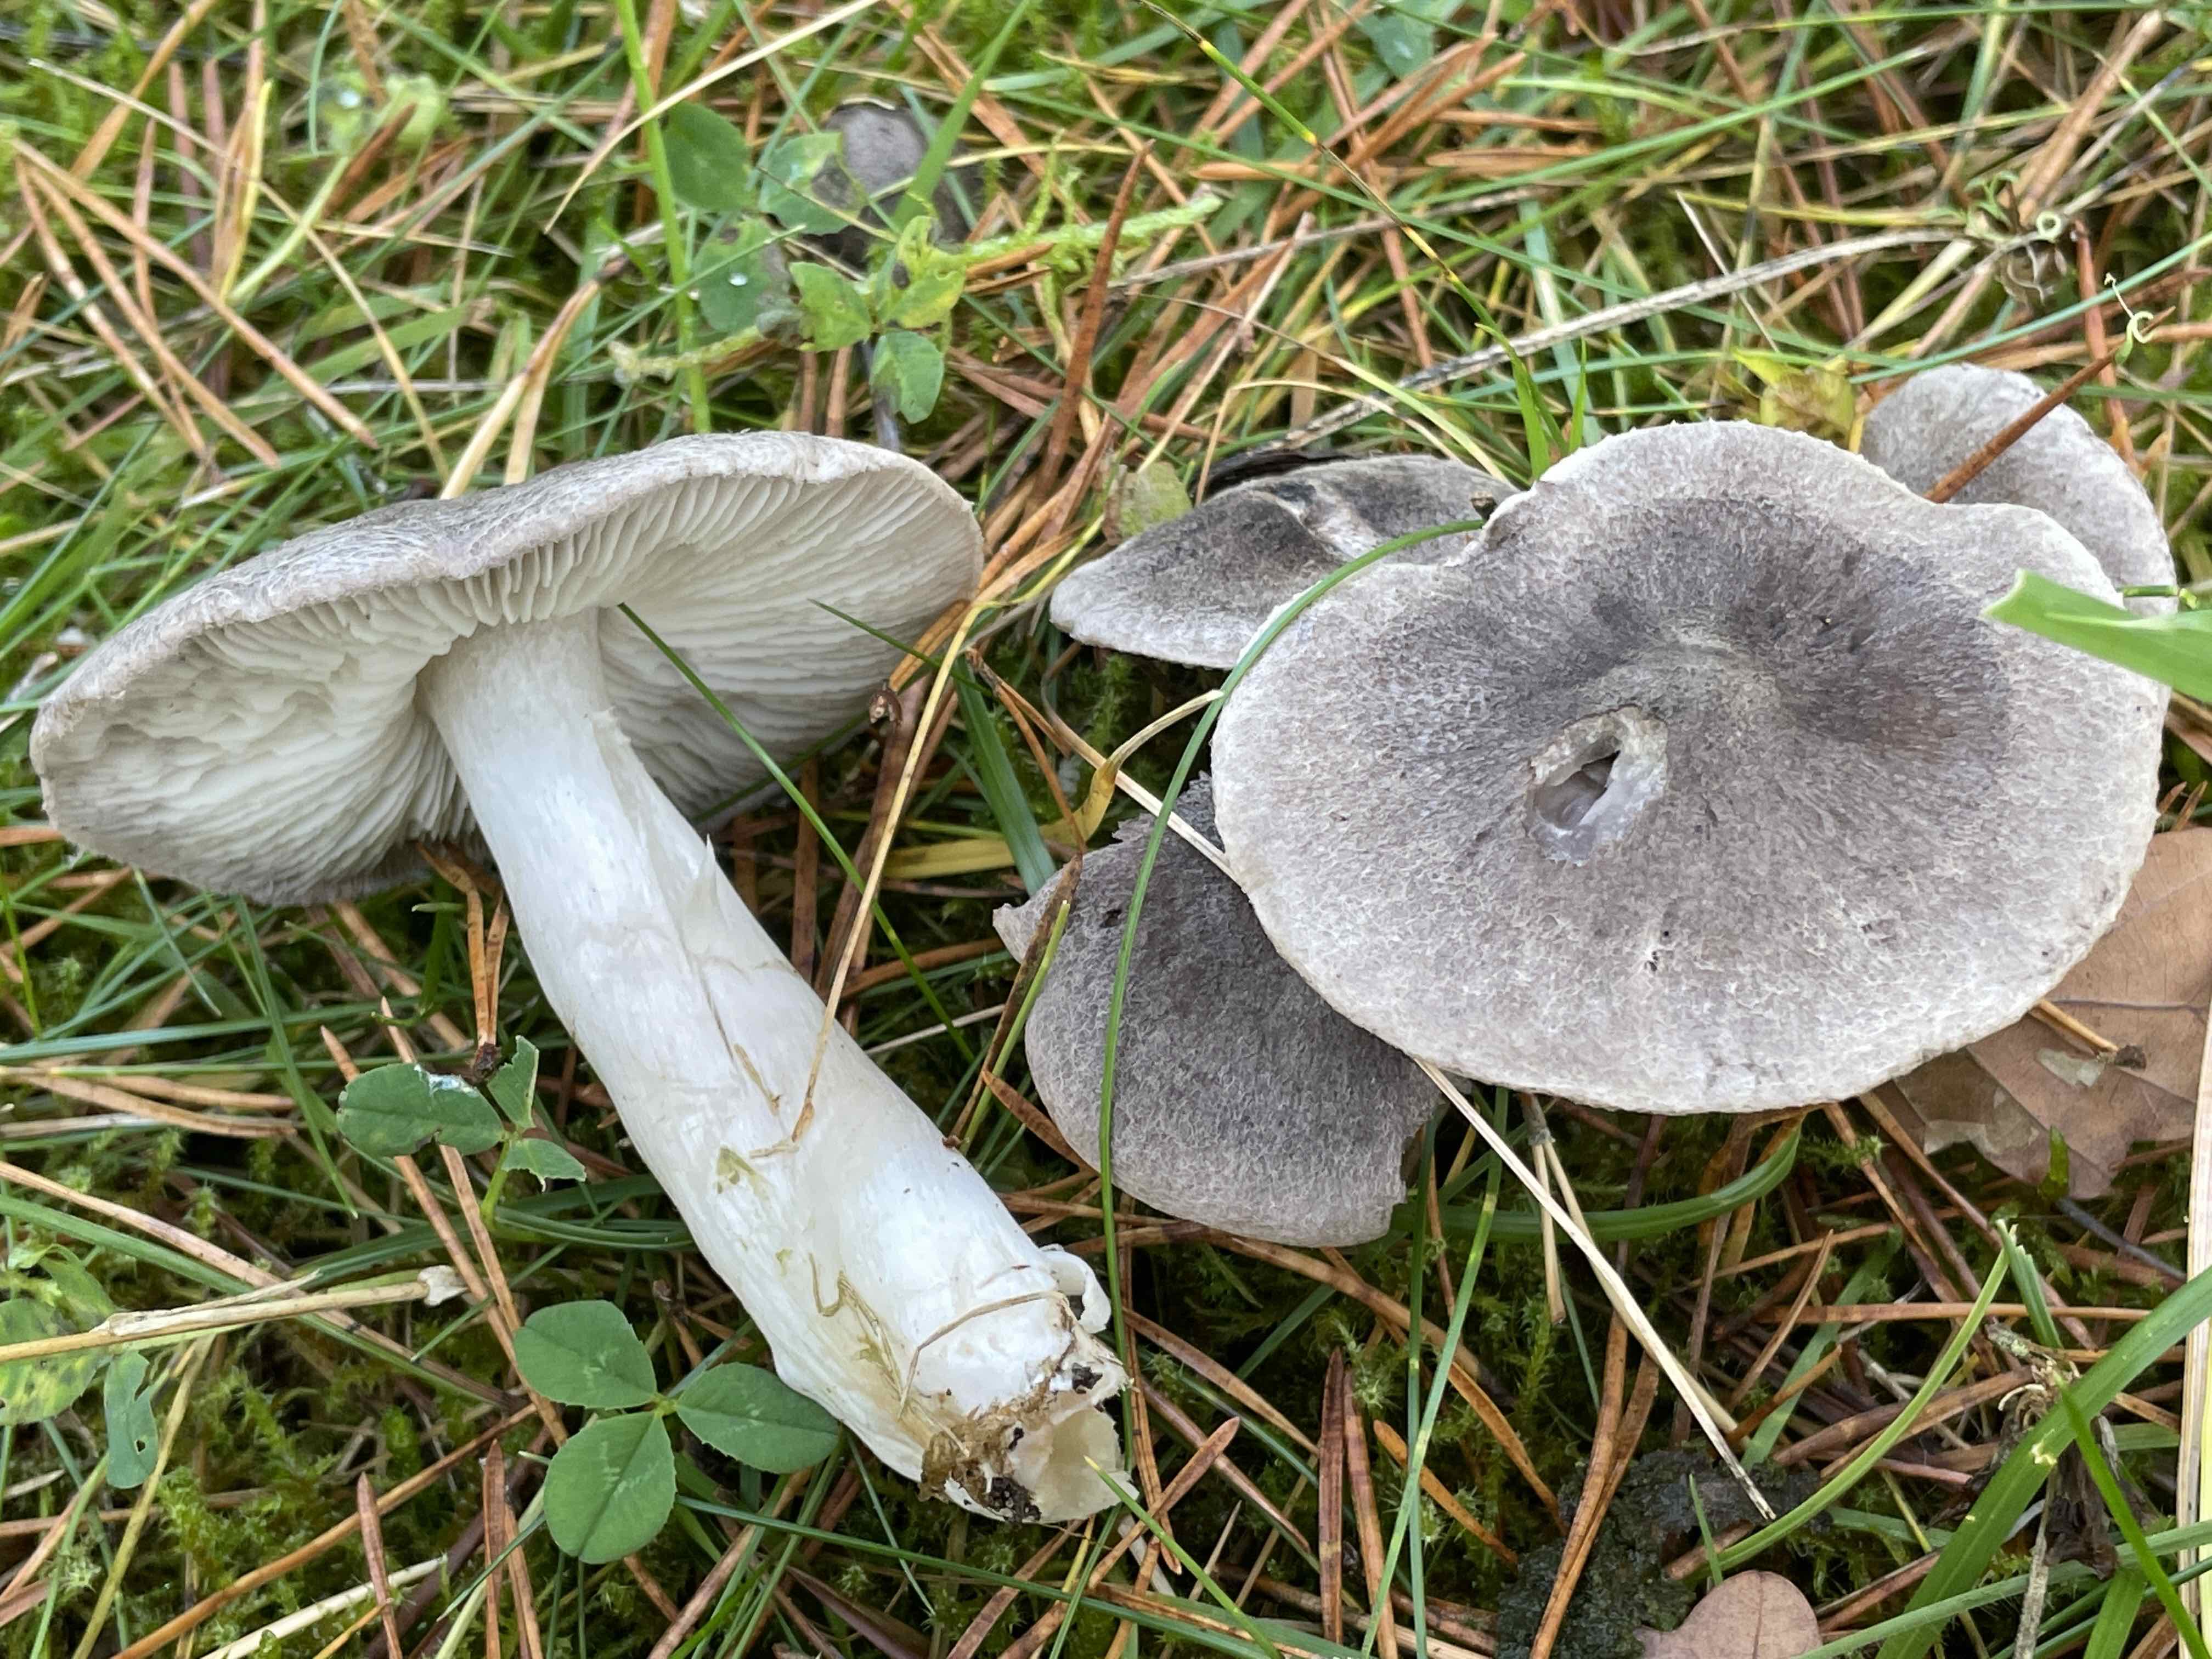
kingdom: Fungi
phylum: Basidiomycota
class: Agaricomycetes
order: Agaricales
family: Tricholomataceae
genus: Tricholoma
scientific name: Tricholoma terreum
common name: jordfarvet ridderhat
